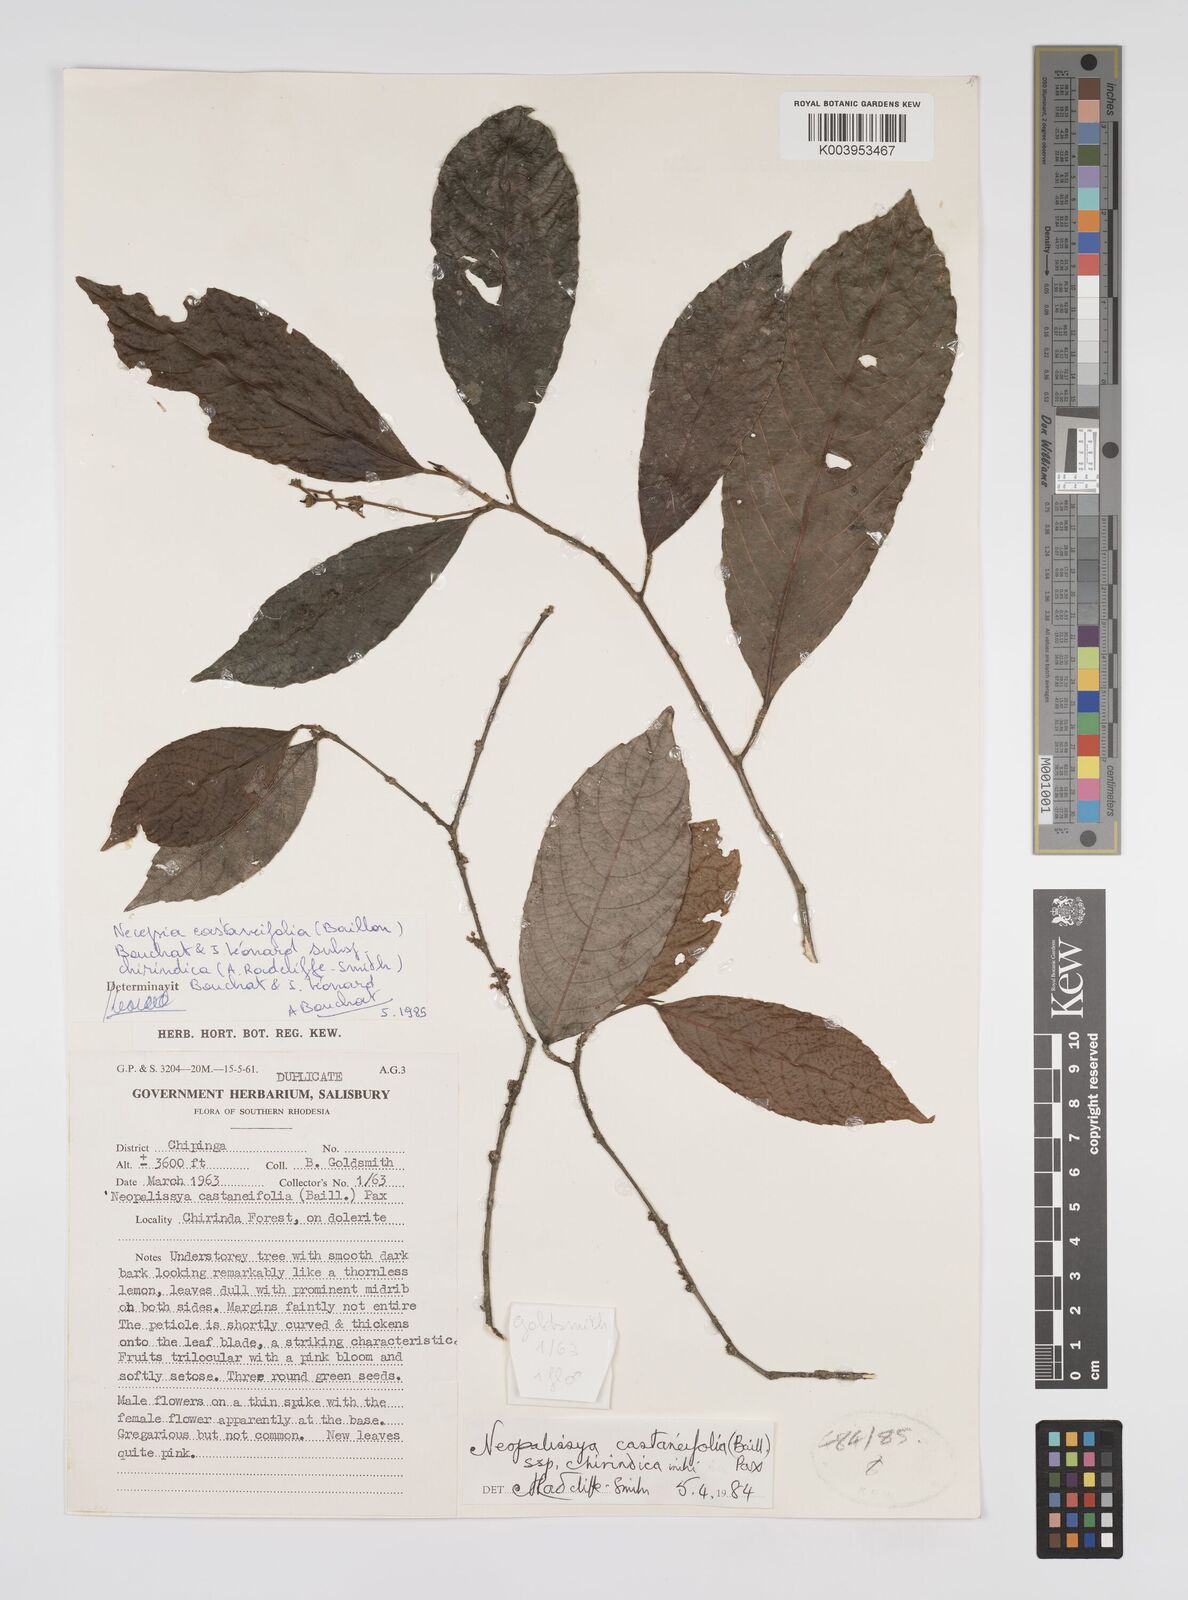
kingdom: Plantae
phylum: Tracheophyta
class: Magnoliopsida
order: Malpighiales
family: Euphorbiaceae
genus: Necepsia
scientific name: Necepsia castaneifolia
